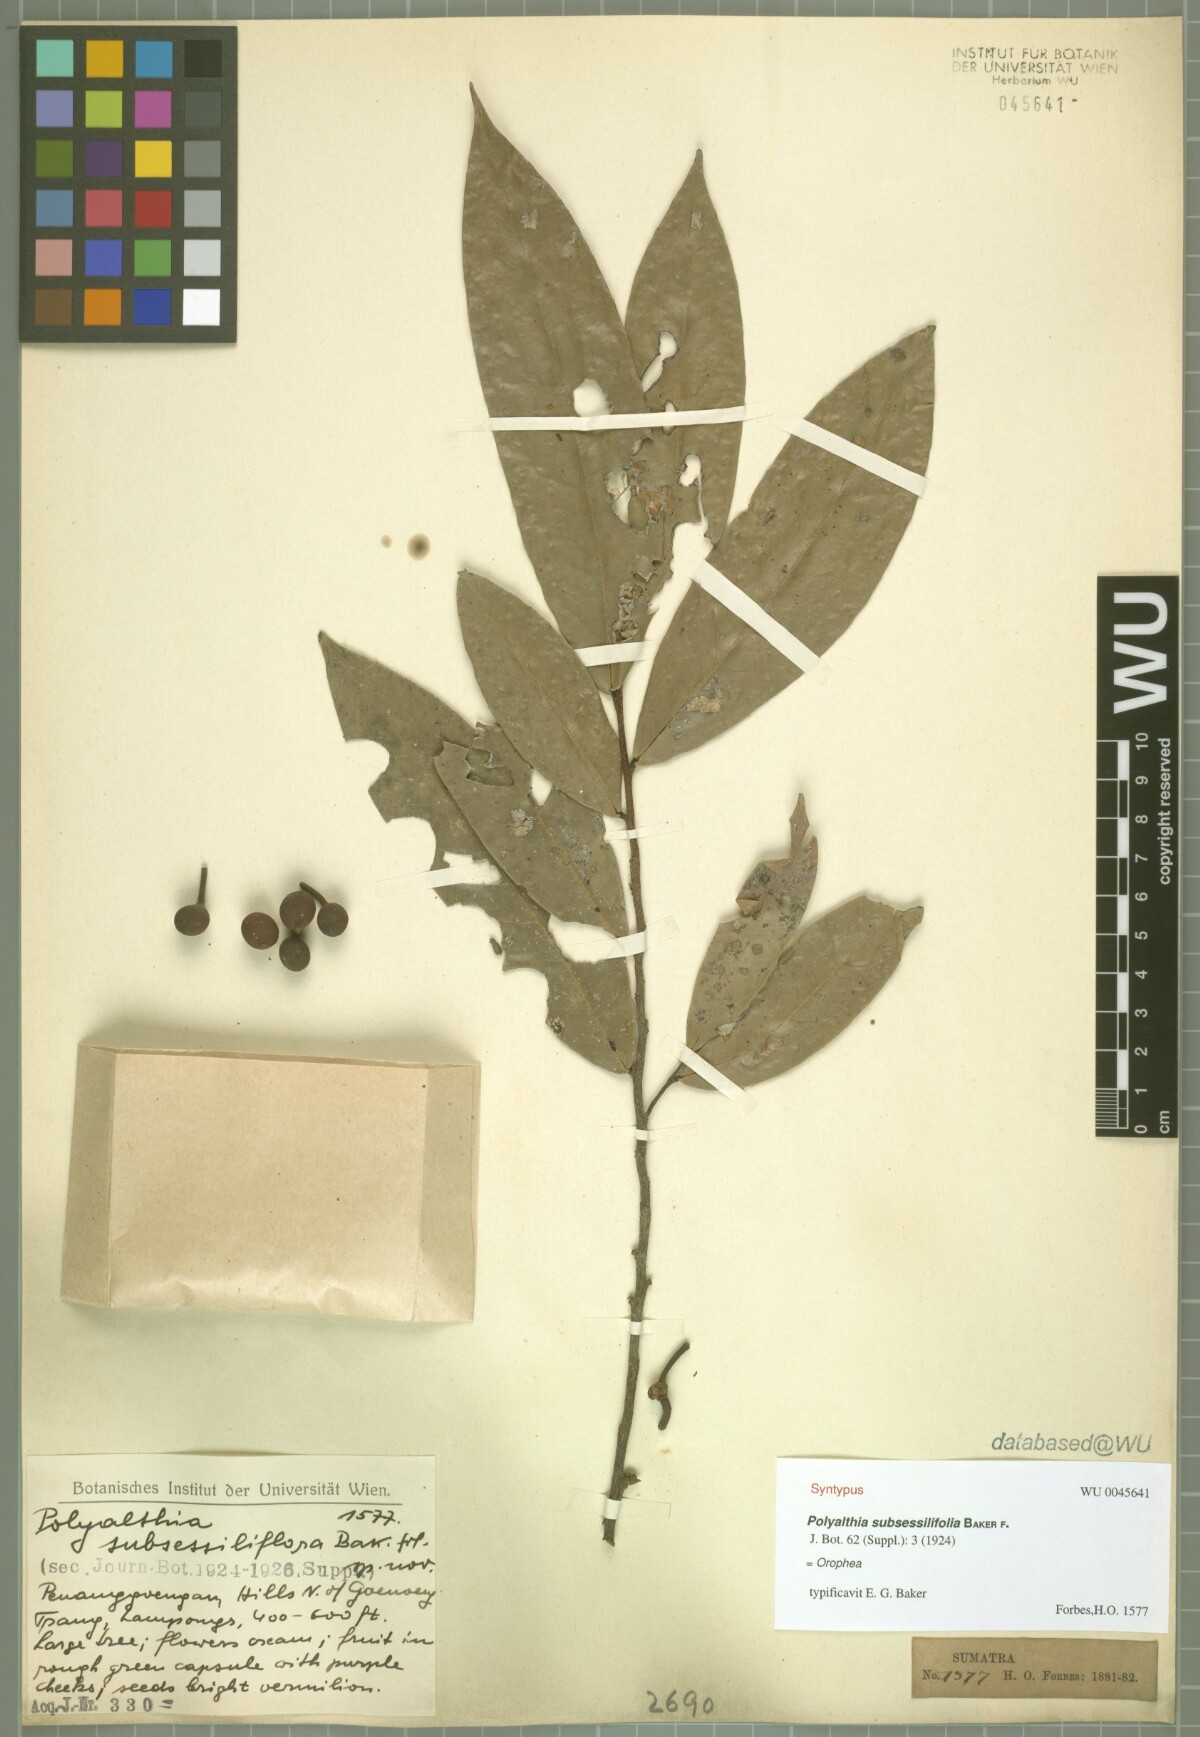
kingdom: Plantae
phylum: Tracheophyta
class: Magnoliopsida
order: Magnoliales
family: Annonaceae
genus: Polyalthia
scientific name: Polyalthia obliqua
